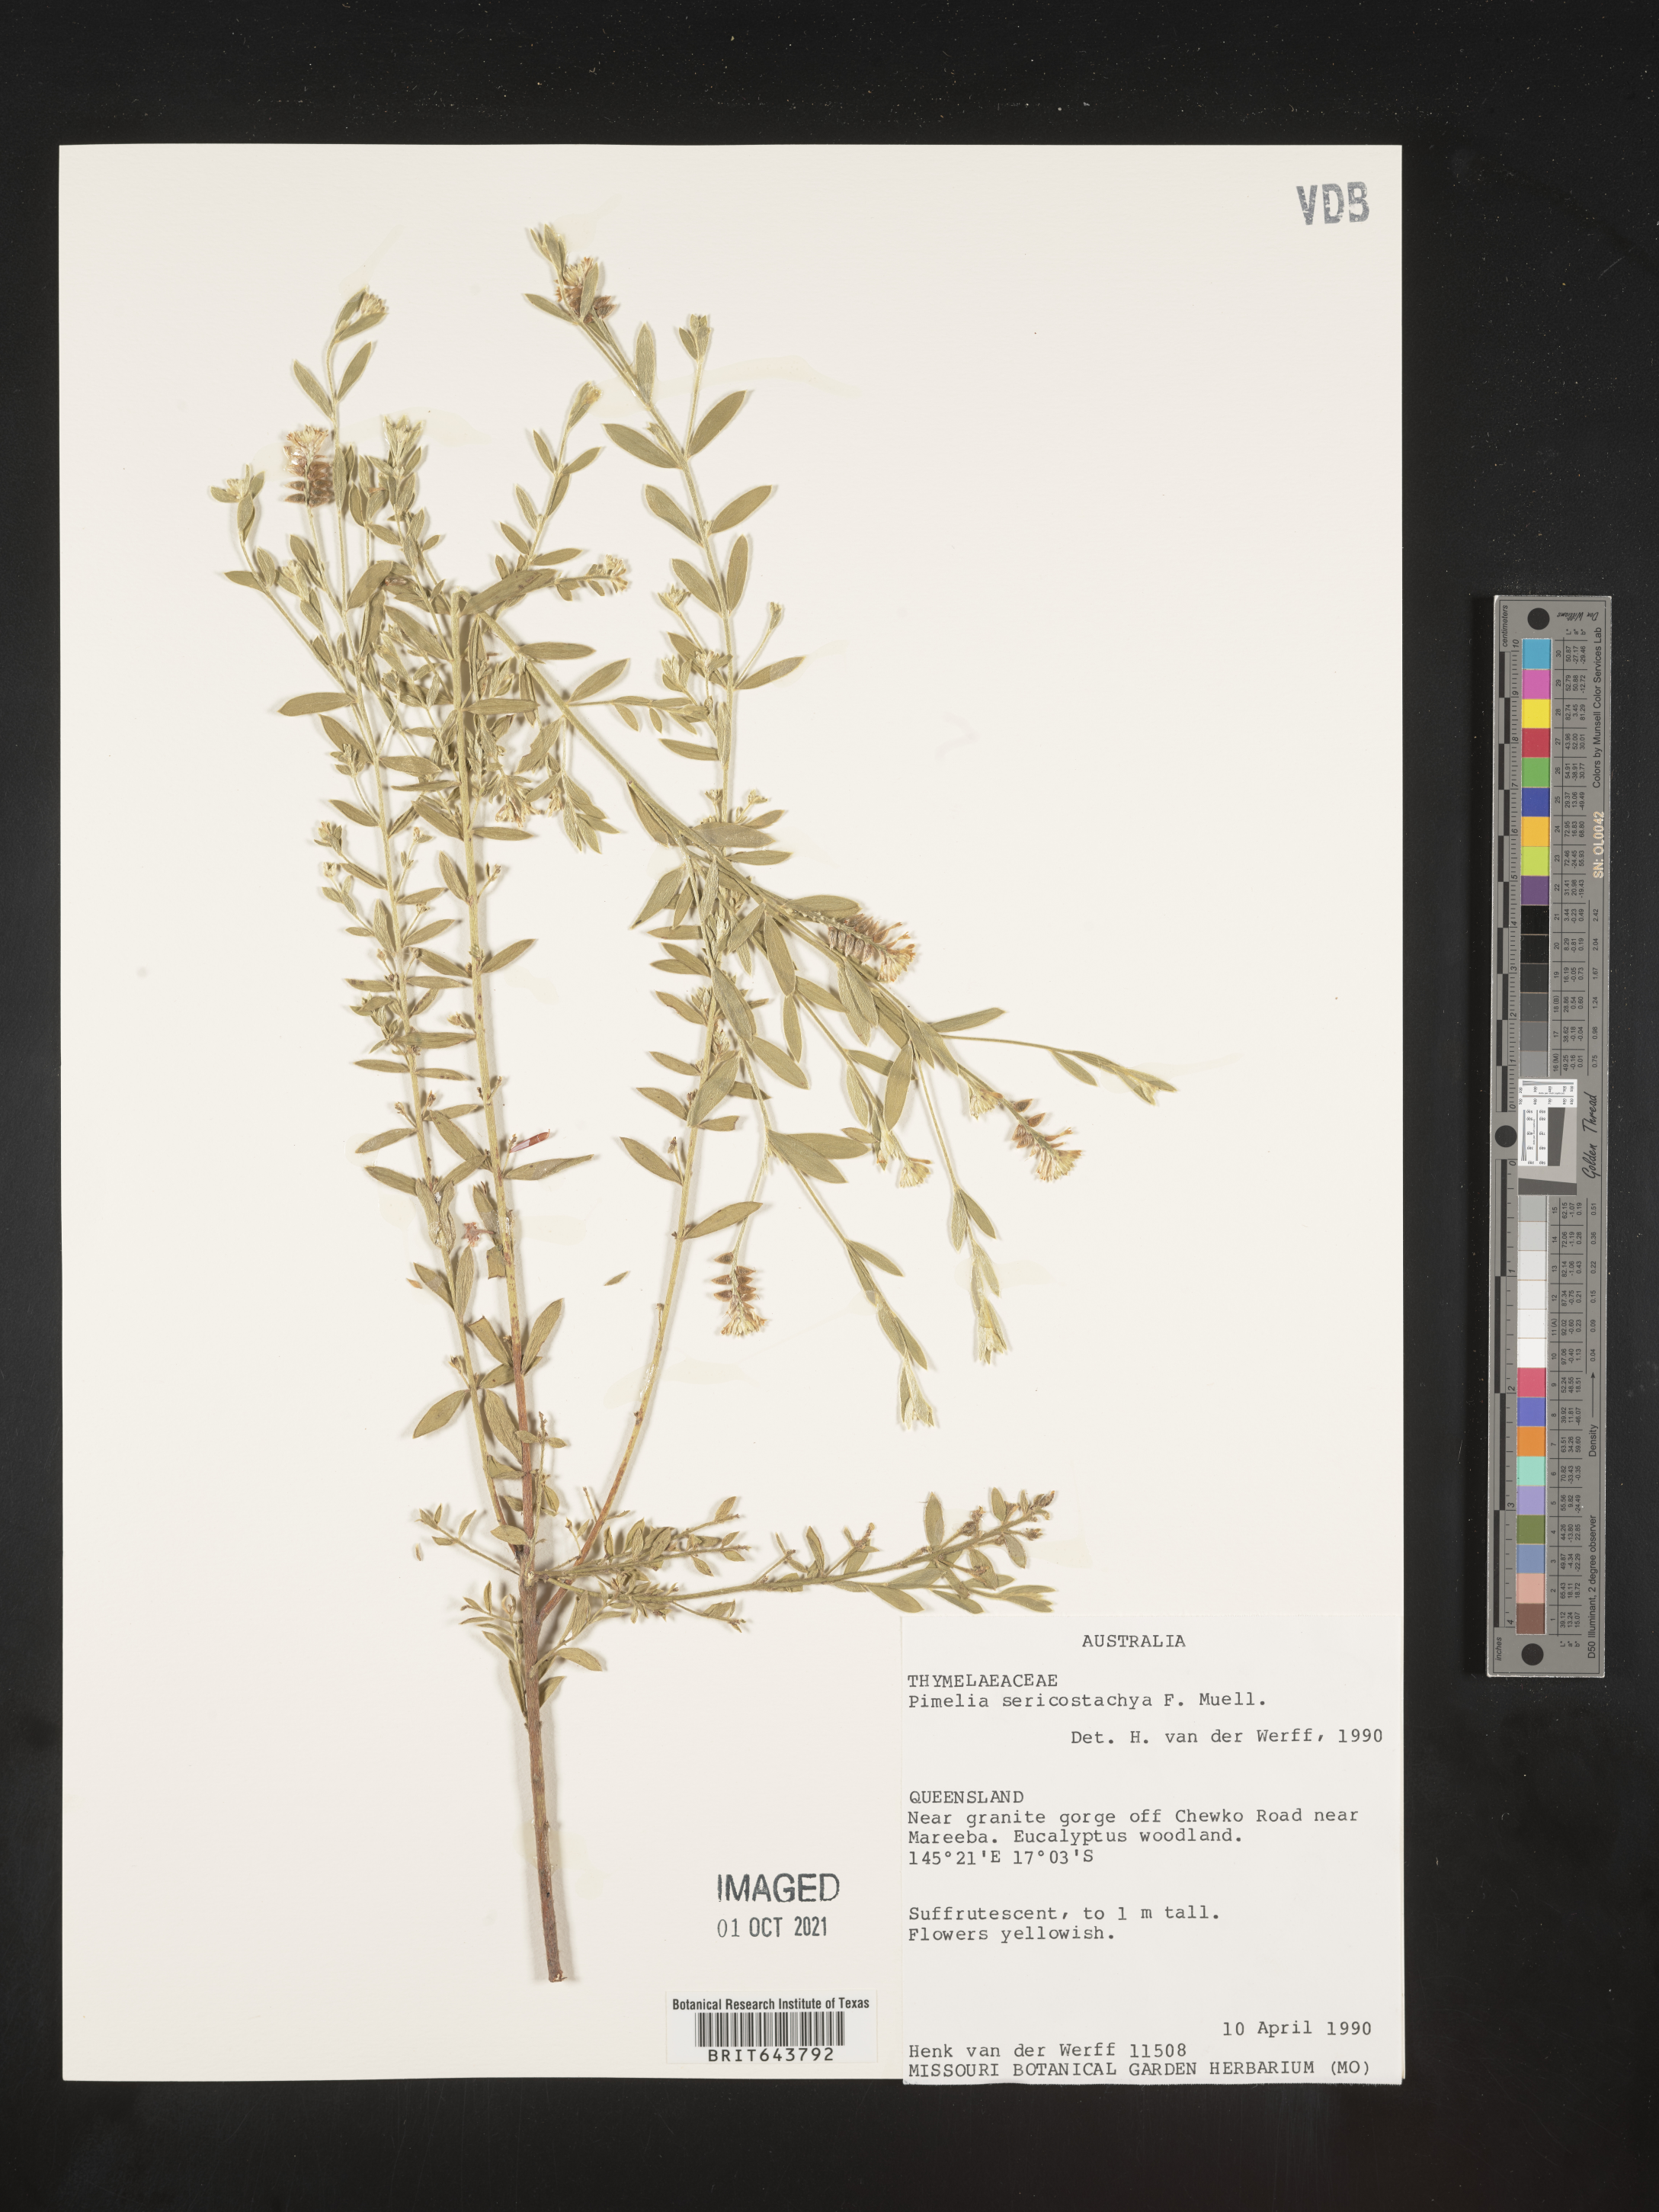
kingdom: Plantae
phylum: Tracheophyta
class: Magnoliopsida
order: Malvales
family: Thymelaeaceae
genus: Pimelea
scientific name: Pimelea sericostachya
